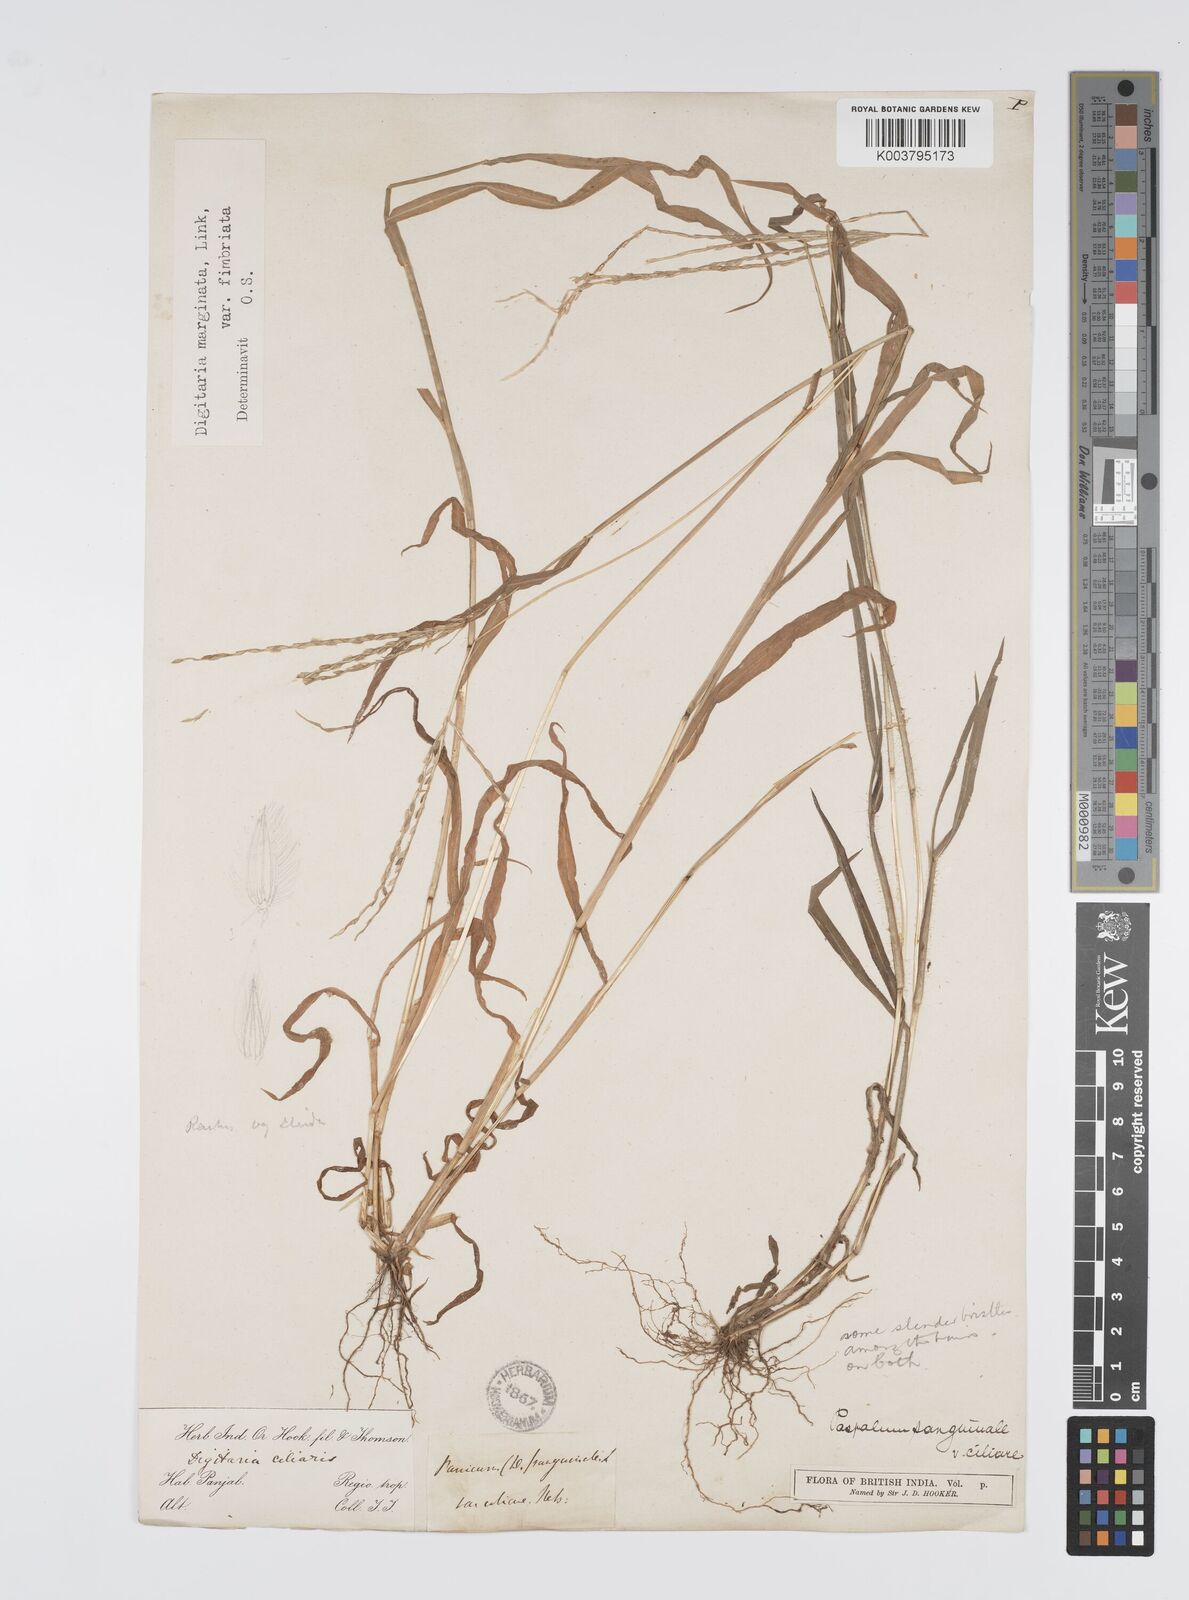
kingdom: Plantae
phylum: Tracheophyta
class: Liliopsida
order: Poales
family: Poaceae
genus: Digitaria
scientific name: Digitaria ciliaris
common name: Tropical finger-grass
